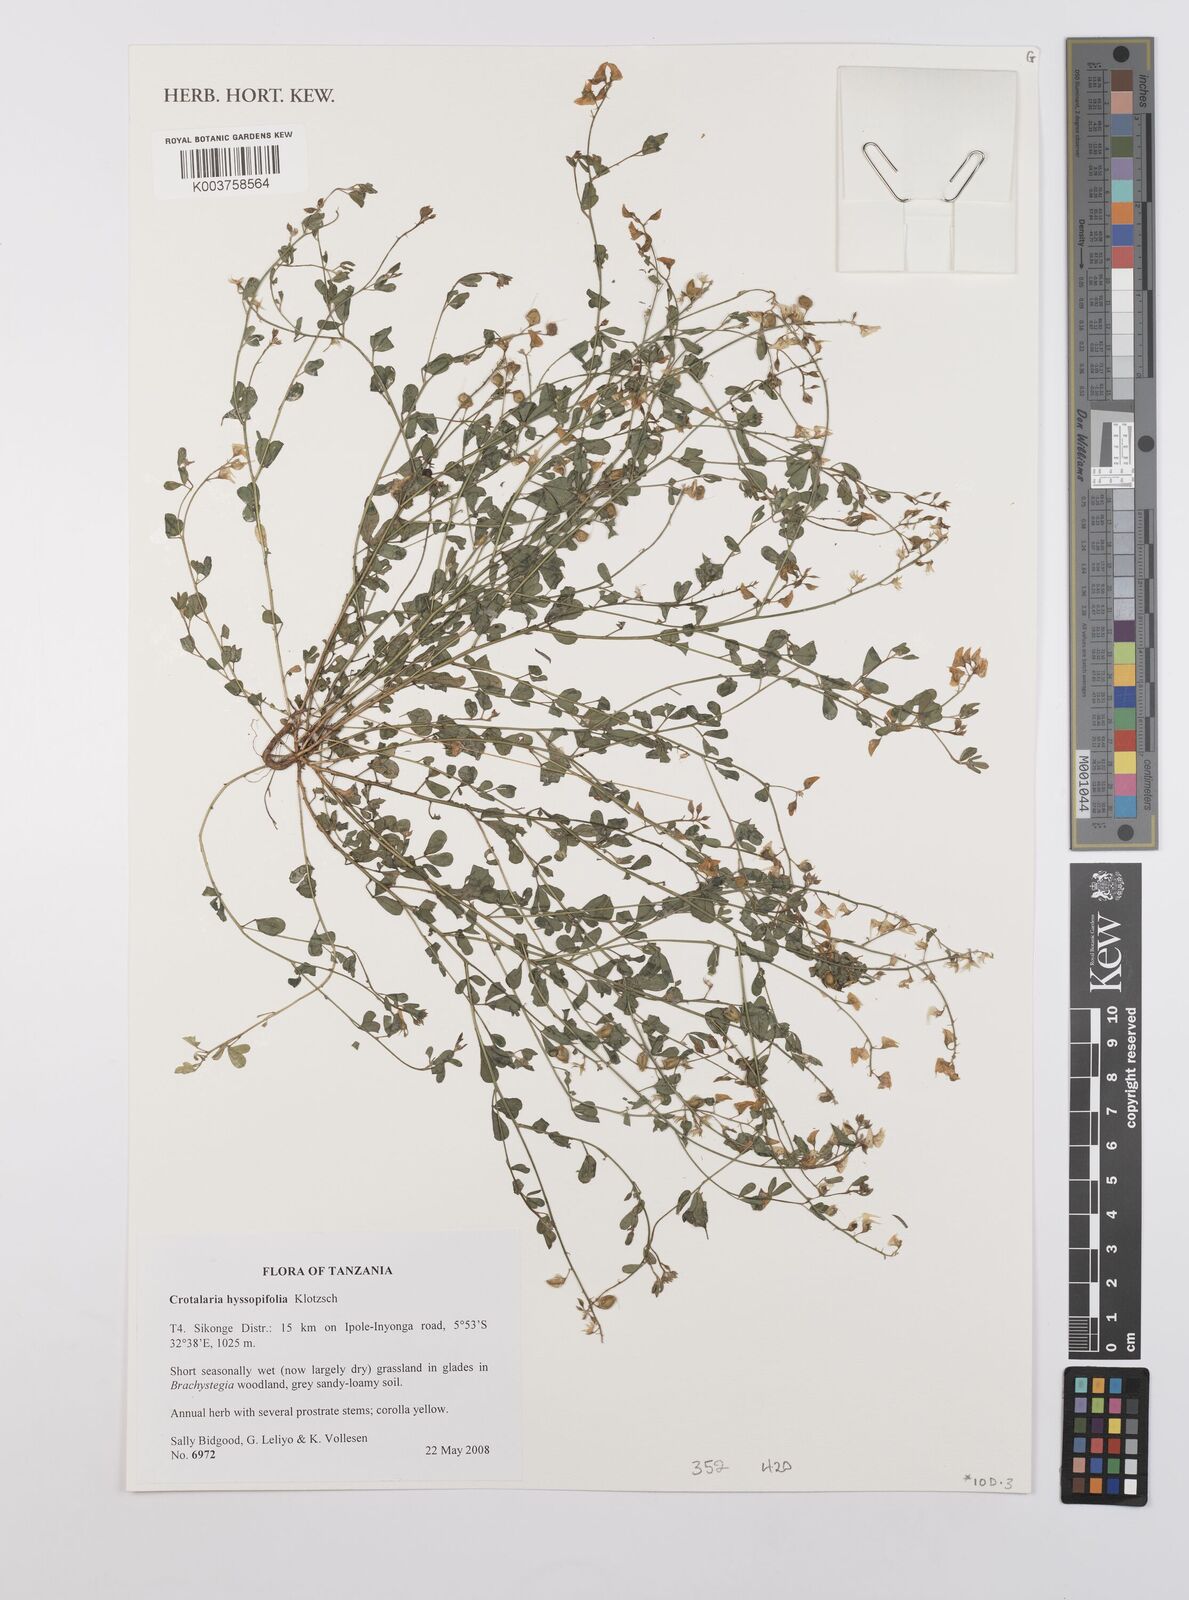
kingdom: Plantae
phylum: Tracheophyta
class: Magnoliopsida
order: Fabales
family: Fabaceae
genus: Crotalaria
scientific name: Crotalaria hyssopifolia
